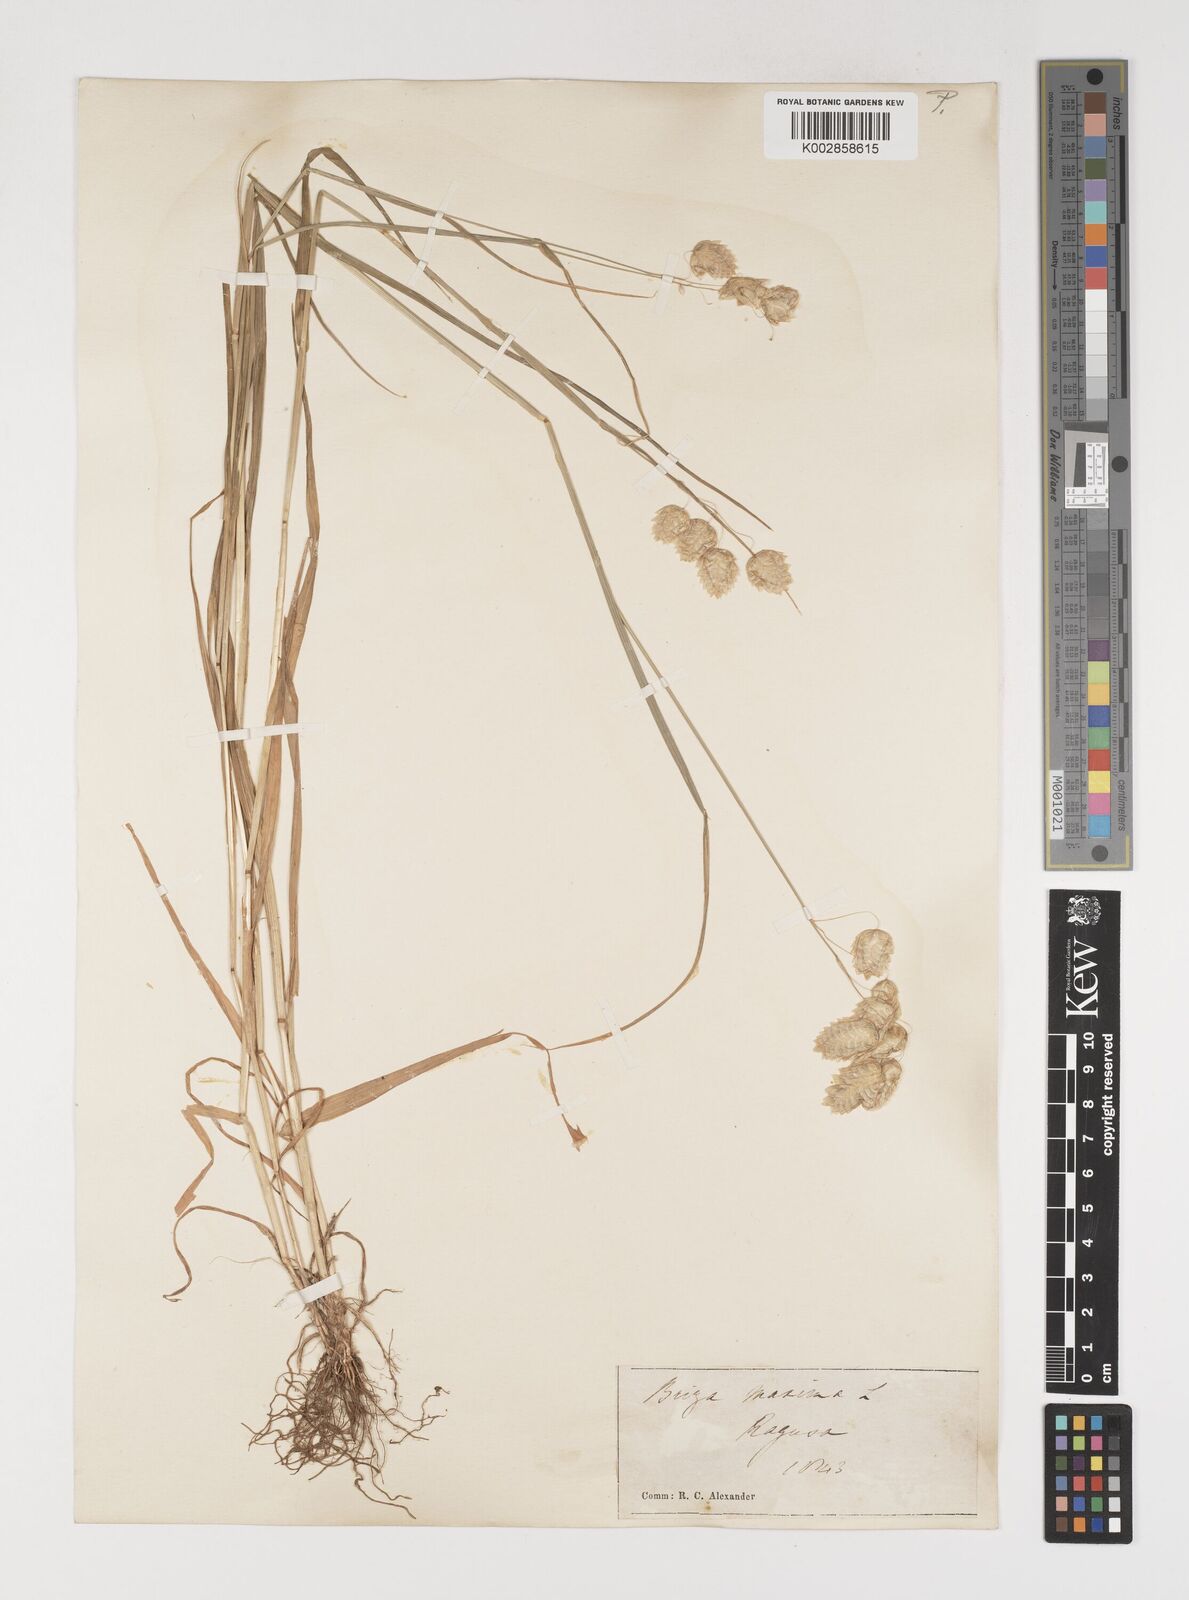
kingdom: Plantae
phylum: Tracheophyta
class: Liliopsida
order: Poales
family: Poaceae
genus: Briza
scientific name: Briza maxima
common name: Big quakinggrass
